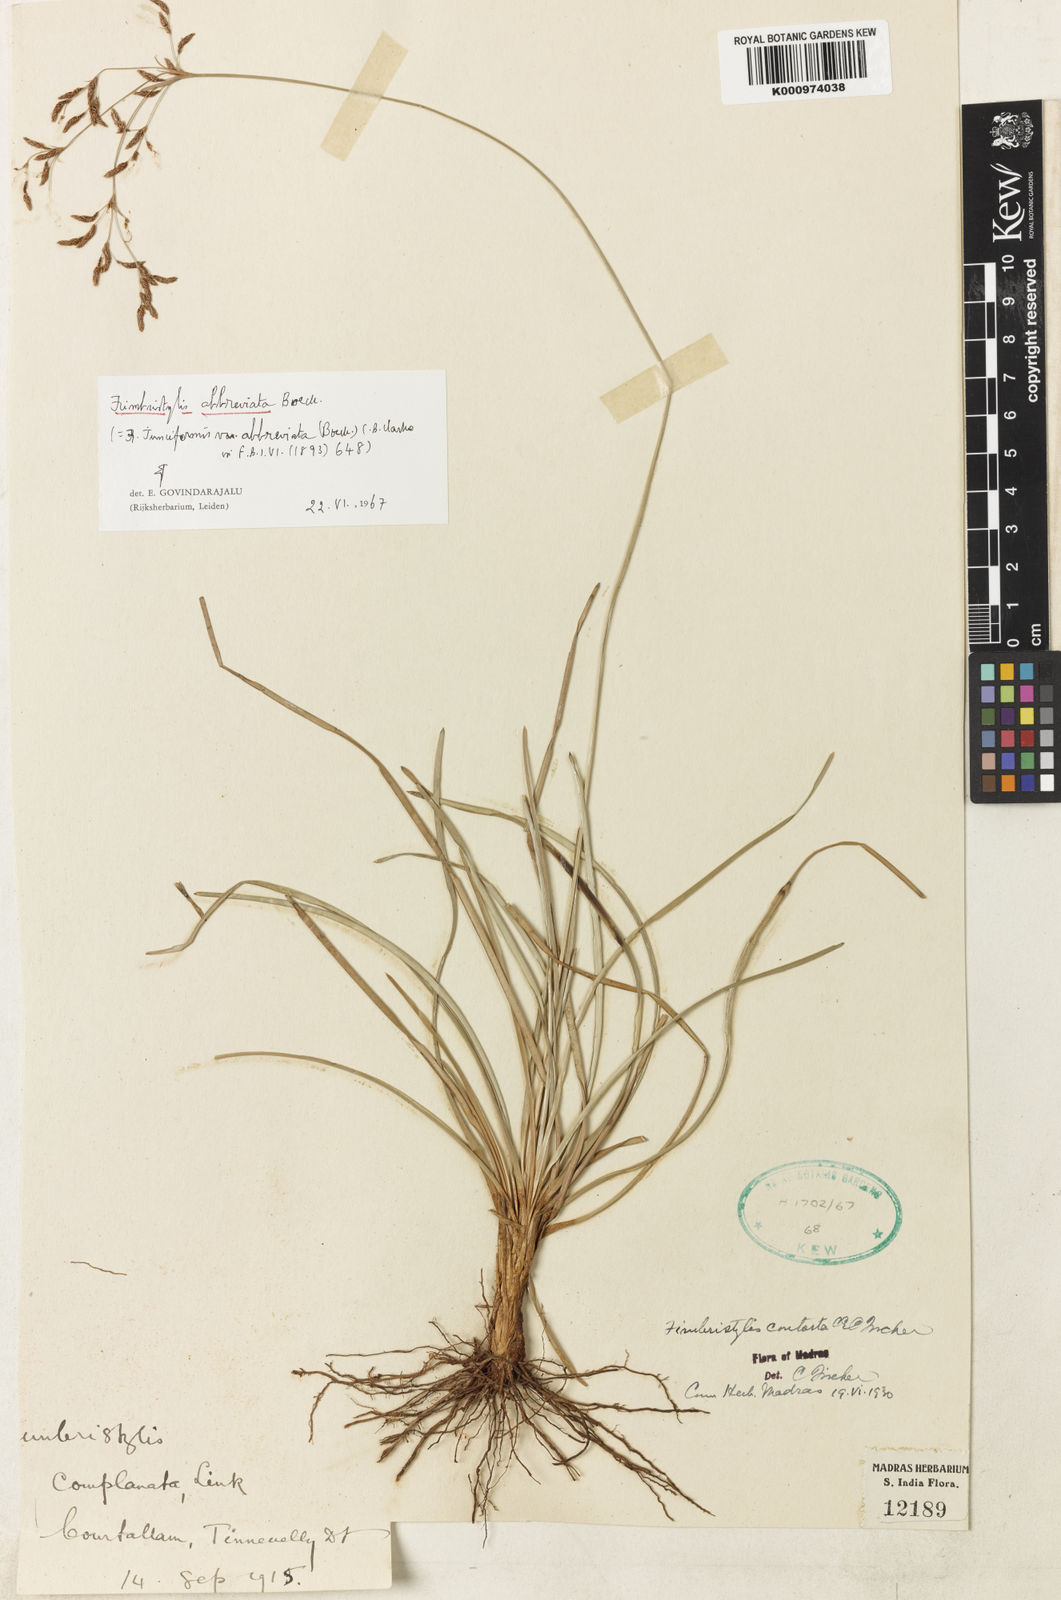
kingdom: Plantae
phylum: Tracheophyta
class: Liliopsida
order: Poales
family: Cyperaceae
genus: Fimbristylis
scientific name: Fimbristylis falcata
